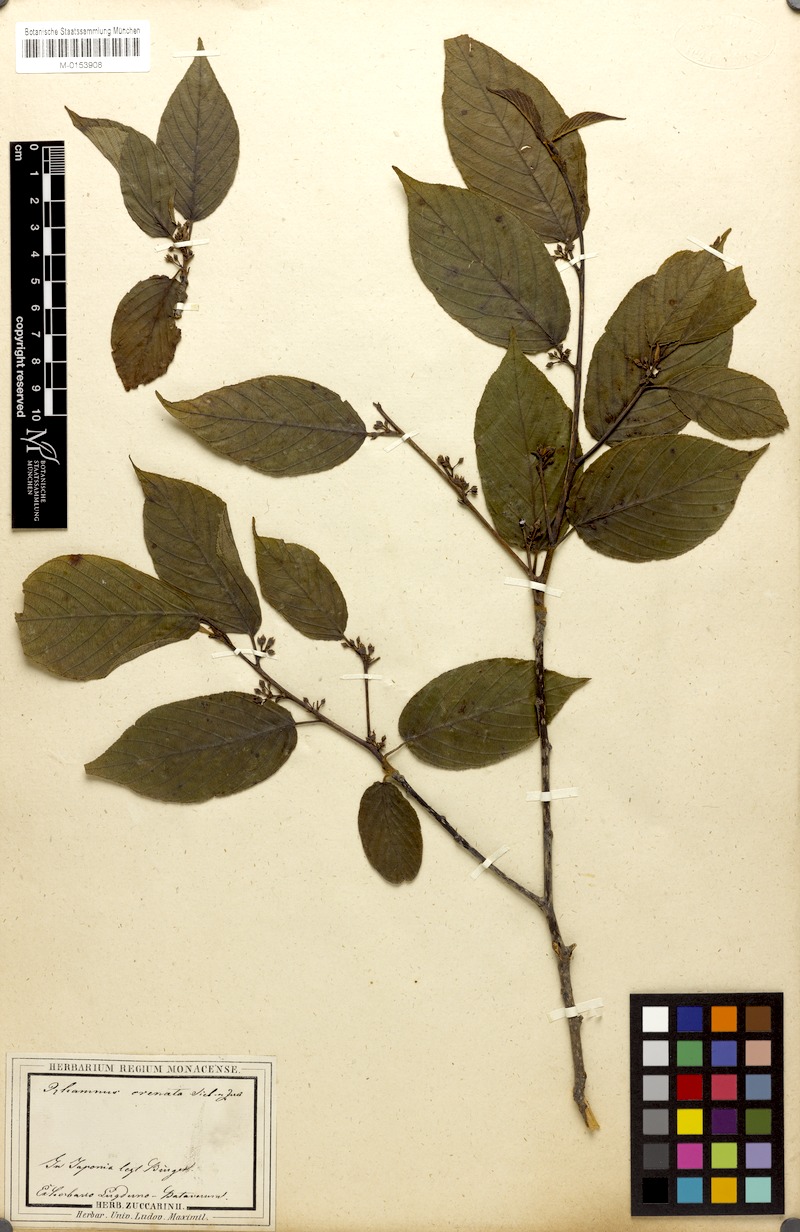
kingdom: Plantae
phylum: Tracheophyta
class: Magnoliopsida
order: Rosales
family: Rhamnaceae
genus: Frangula
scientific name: Frangula crenata
